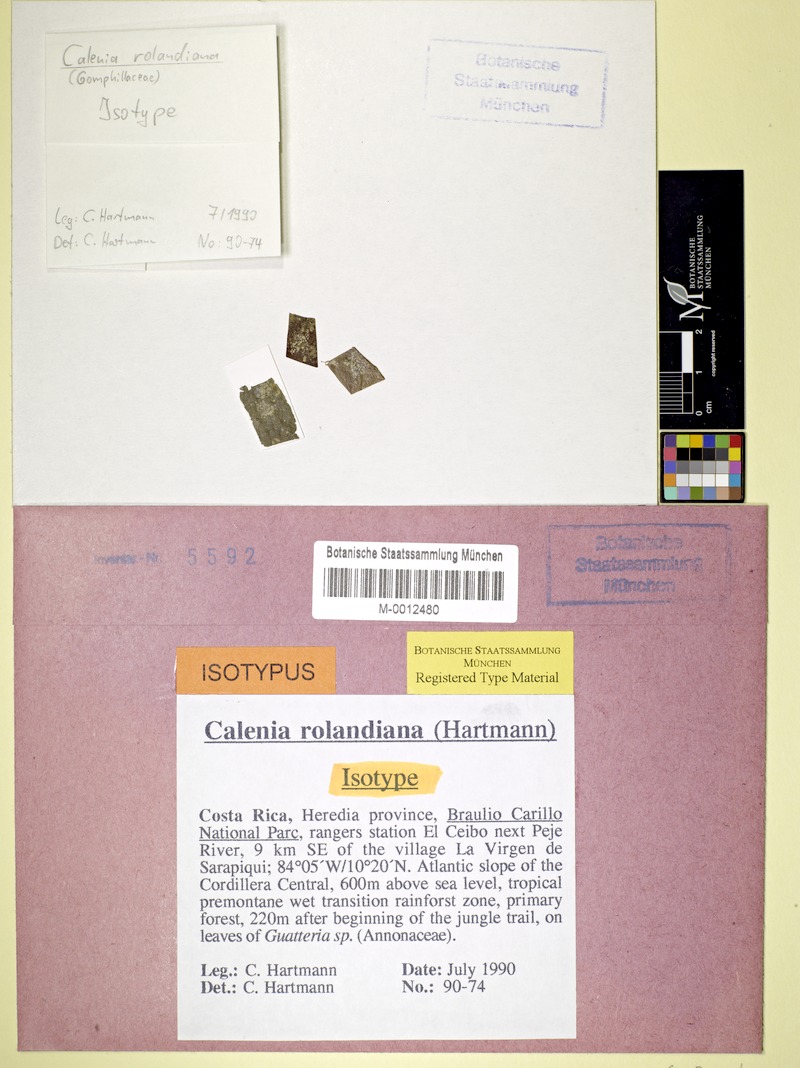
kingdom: Fungi
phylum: Ascomycota
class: Lecanoromycetes
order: Ostropales
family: Gomphillaceae
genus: Calenia
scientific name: Calenia
